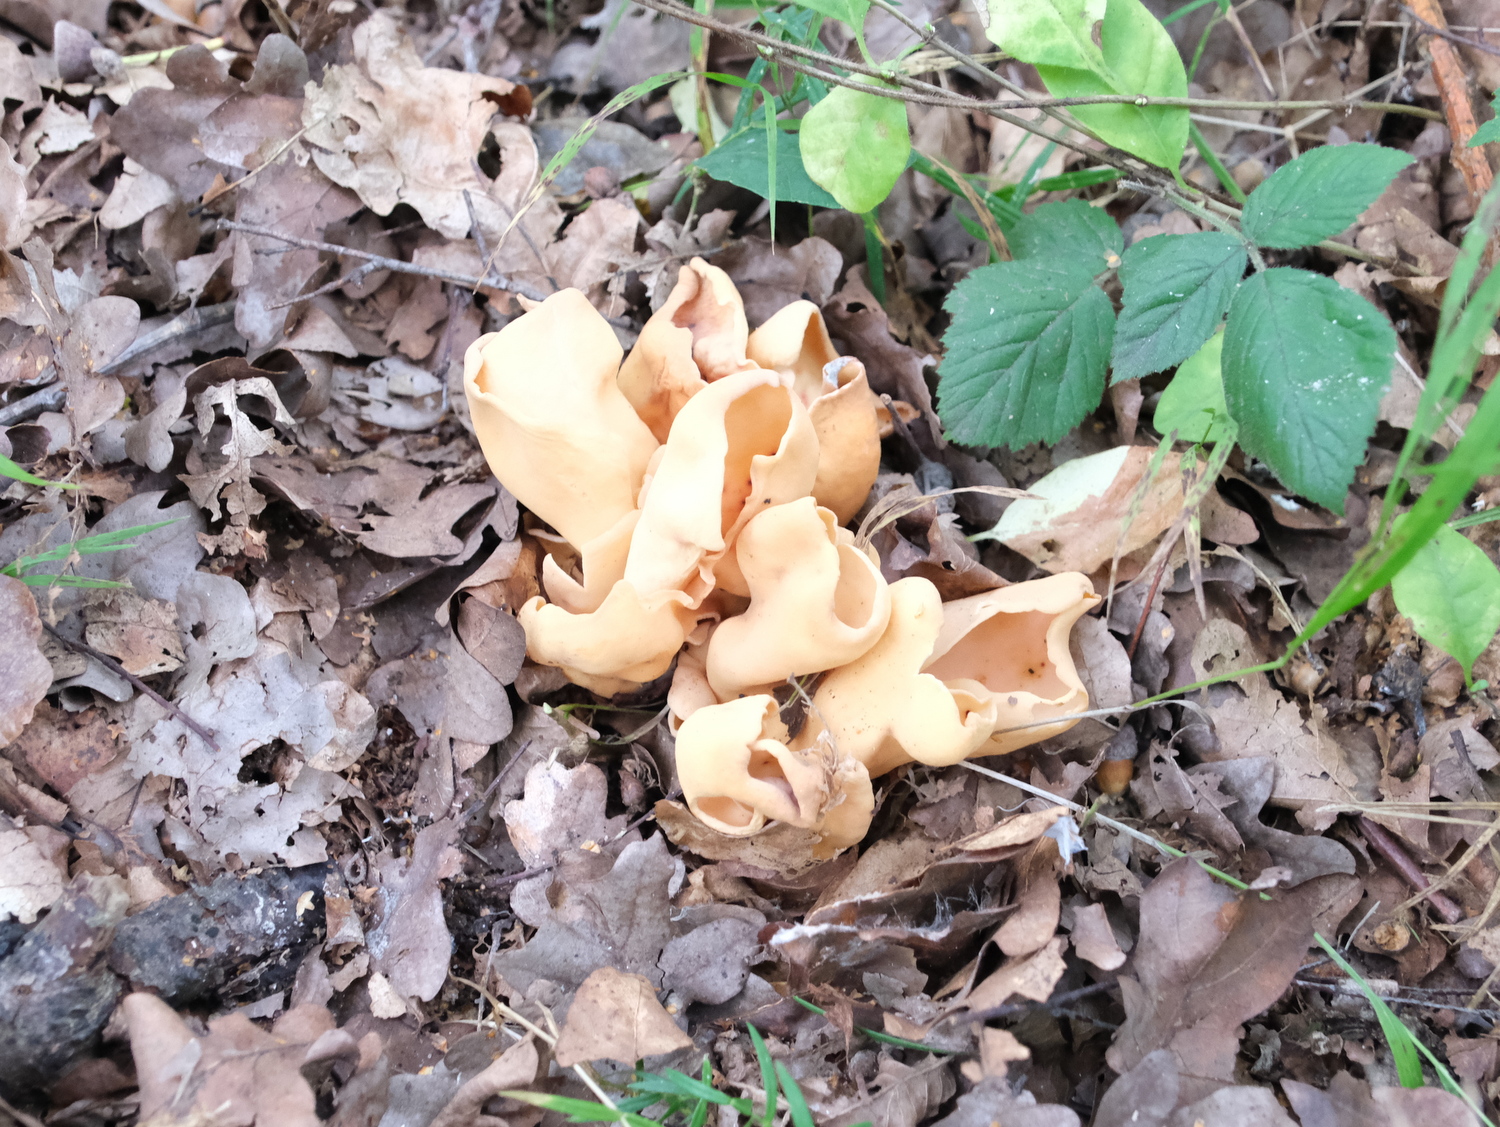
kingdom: Fungi
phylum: Ascomycota
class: Pezizomycetes
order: Pezizales
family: Otideaceae
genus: Otidea
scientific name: Otidea onotica
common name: æsel-ørebæger
